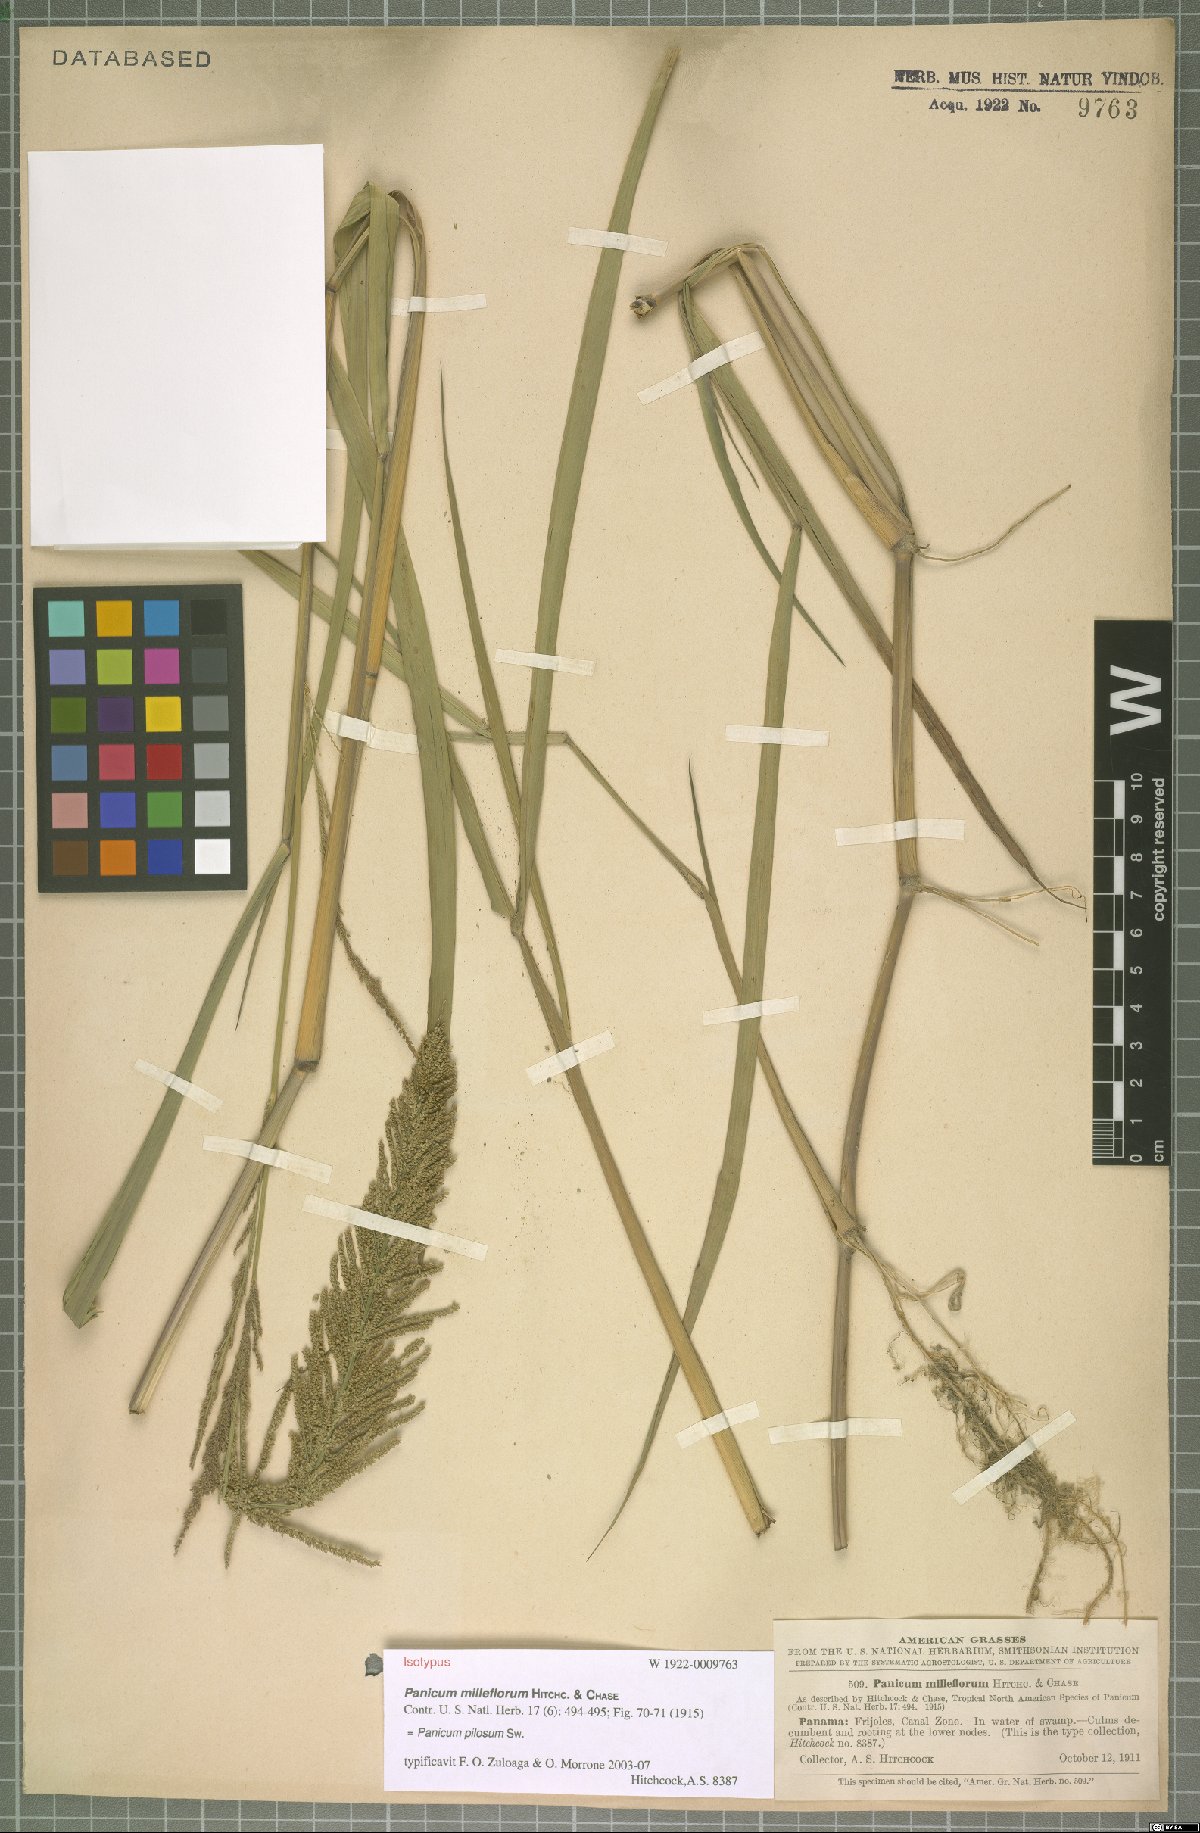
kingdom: Plantae
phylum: Tracheophyta
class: Liliopsida
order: Poales
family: Poaceae
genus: Rugoloa
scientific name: Rugoloa pilosa
